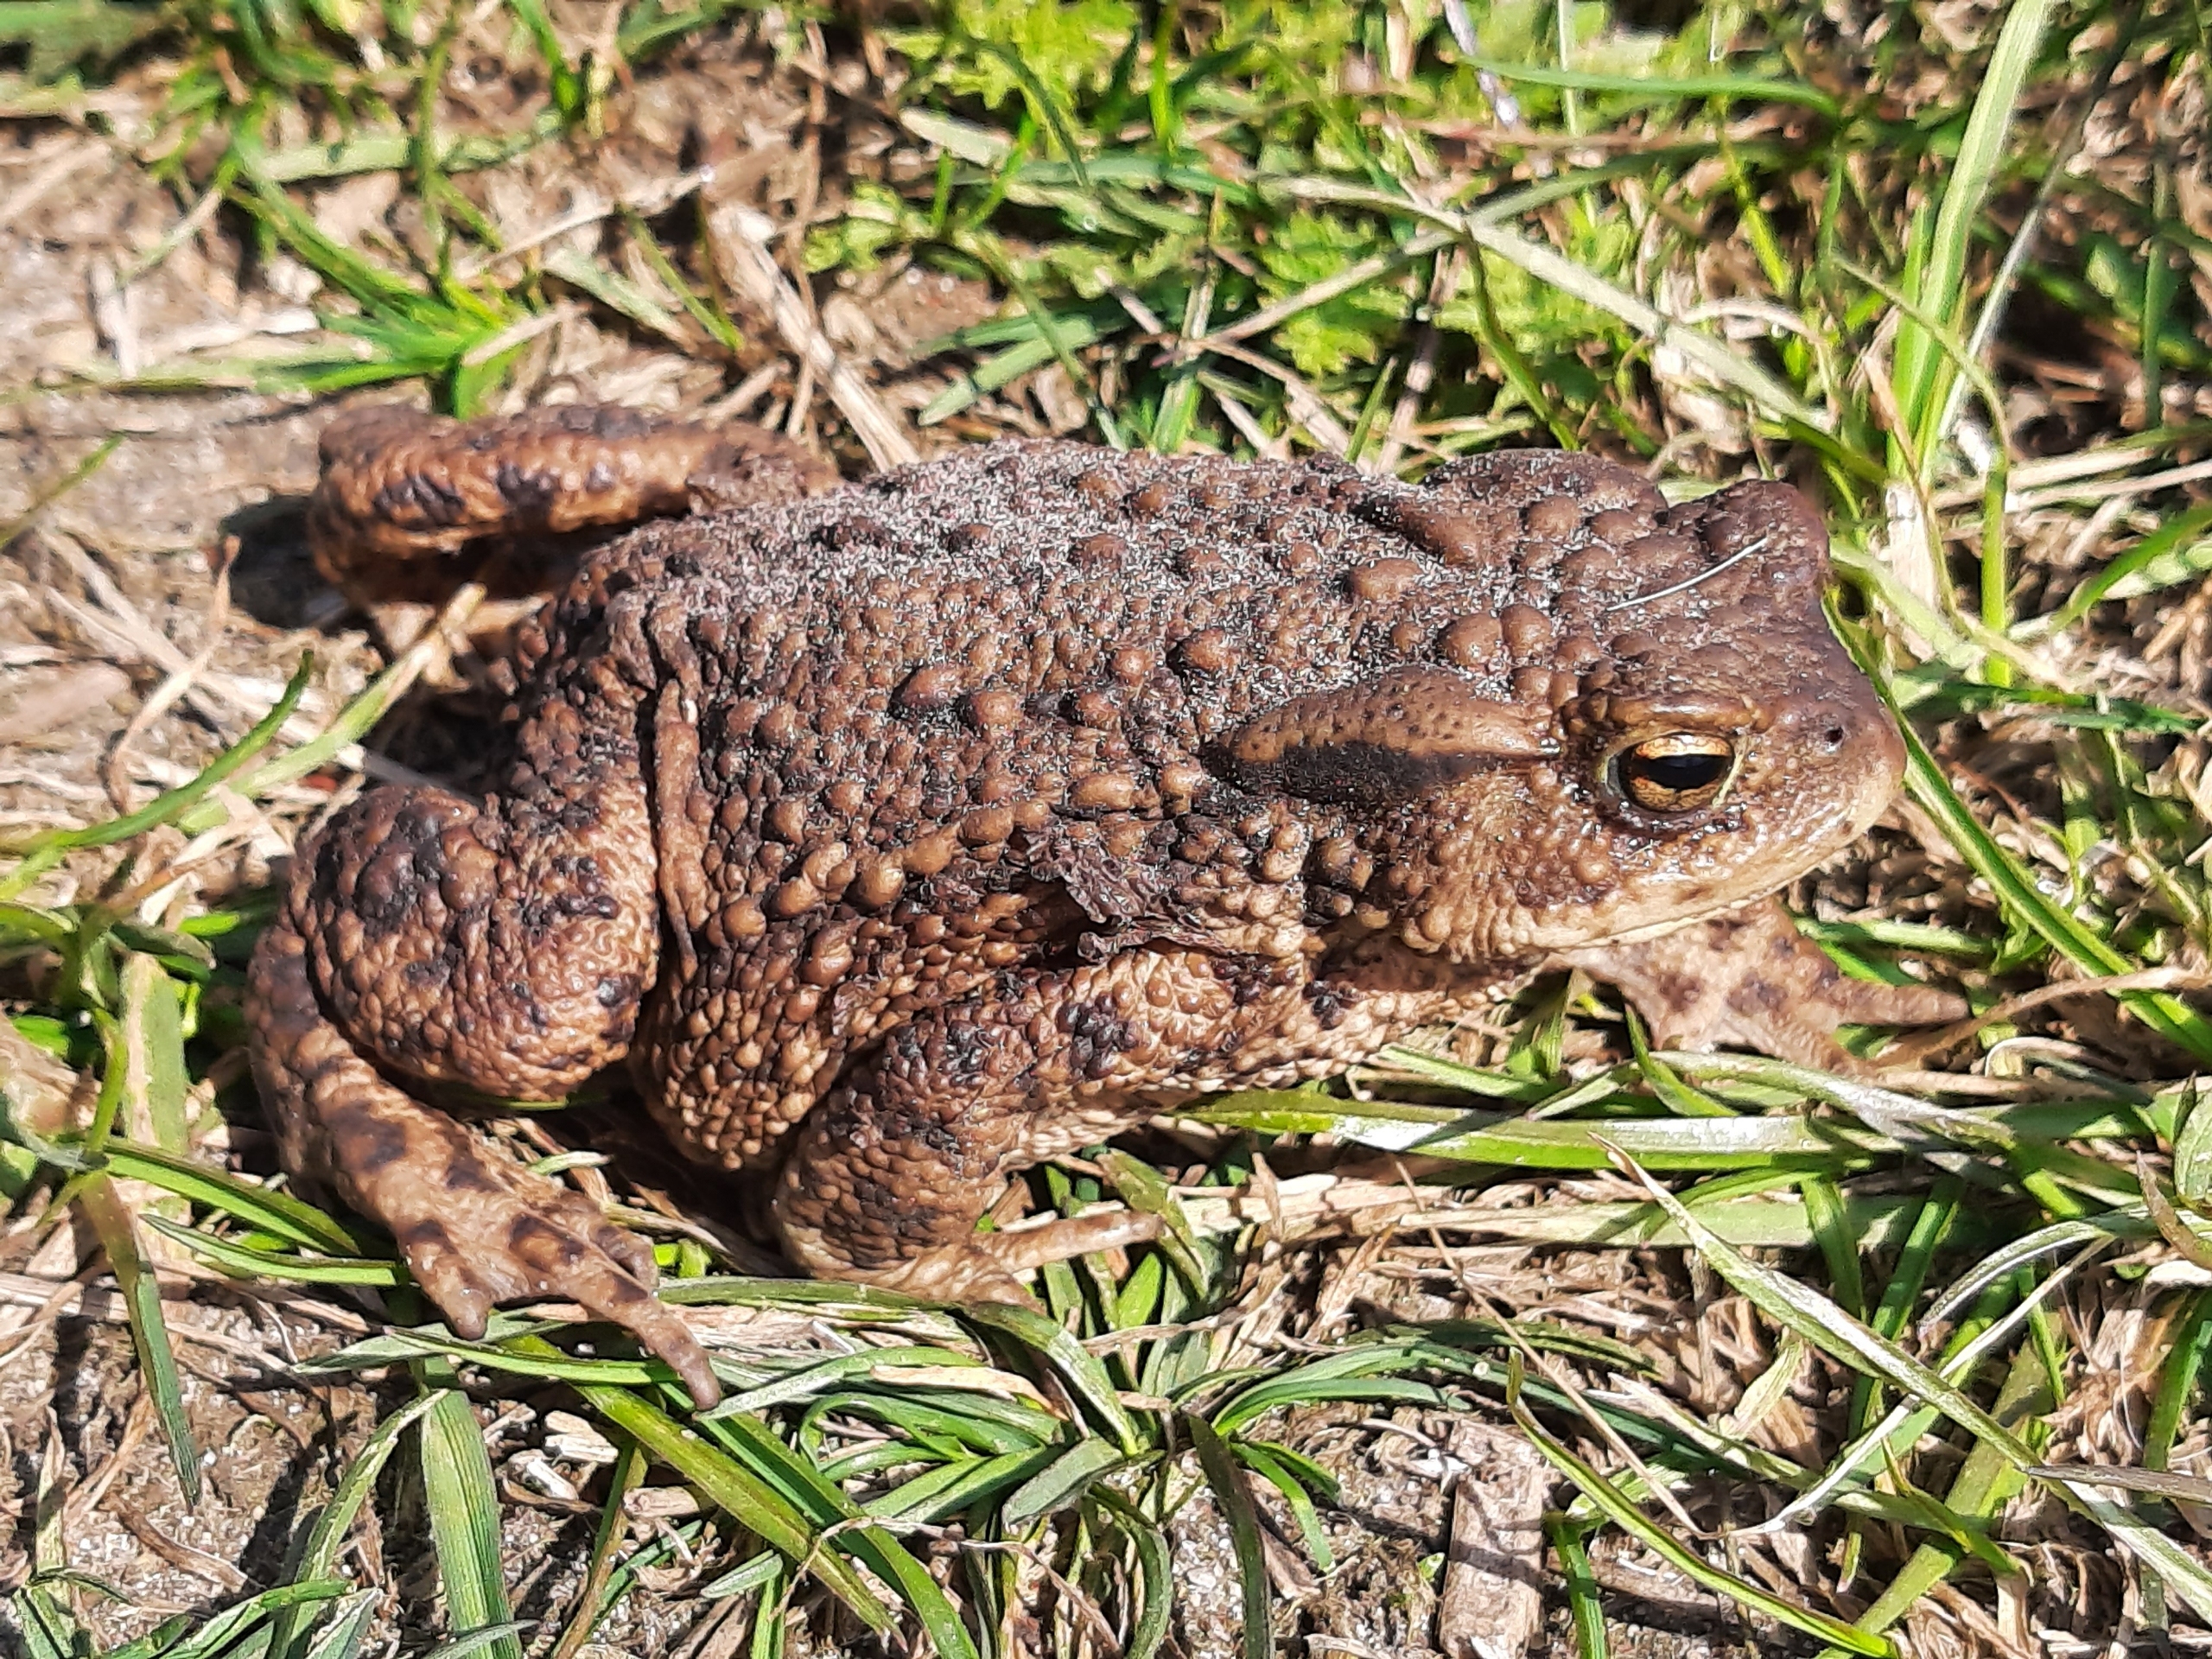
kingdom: Animalia
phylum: Chordata
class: Amphibia
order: Anura
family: Bufonidae
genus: Bufo
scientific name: Bufo bufo
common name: Skrubtudse
